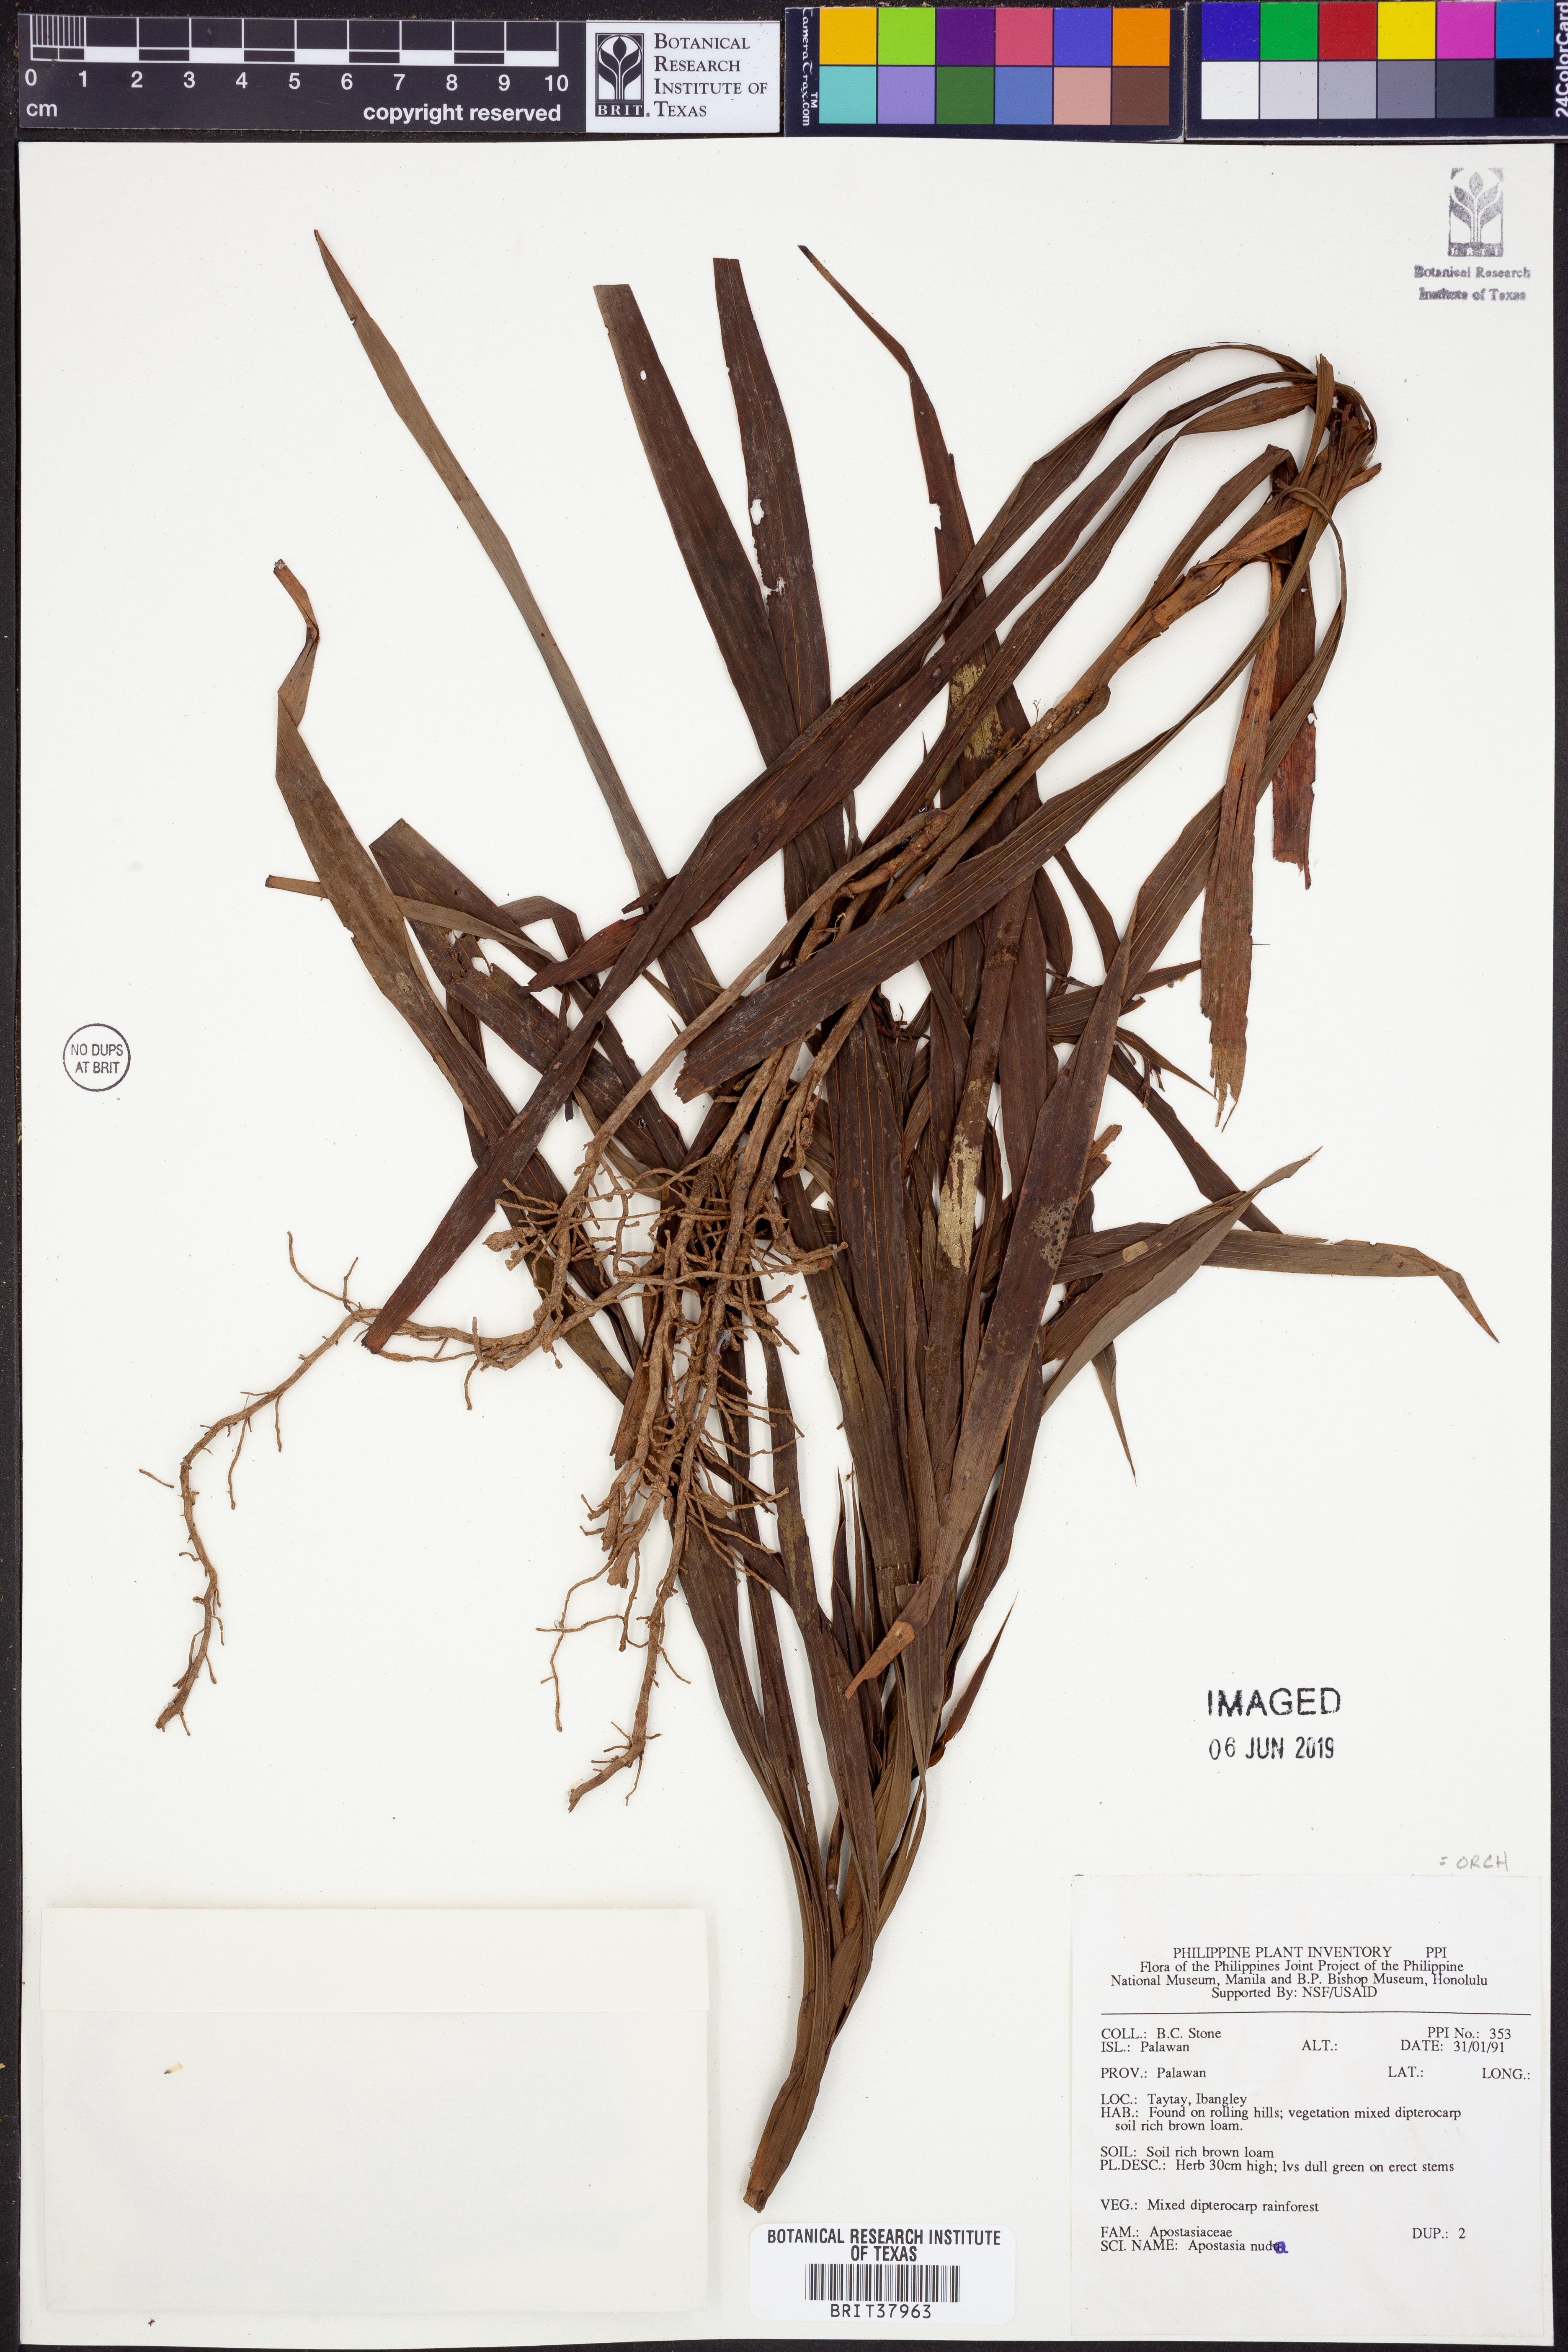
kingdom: Plantae
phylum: Tracheophyta
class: Liliopsida
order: Asparagales
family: Orchidaceae
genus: Apostasia
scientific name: Apostasia nuda
